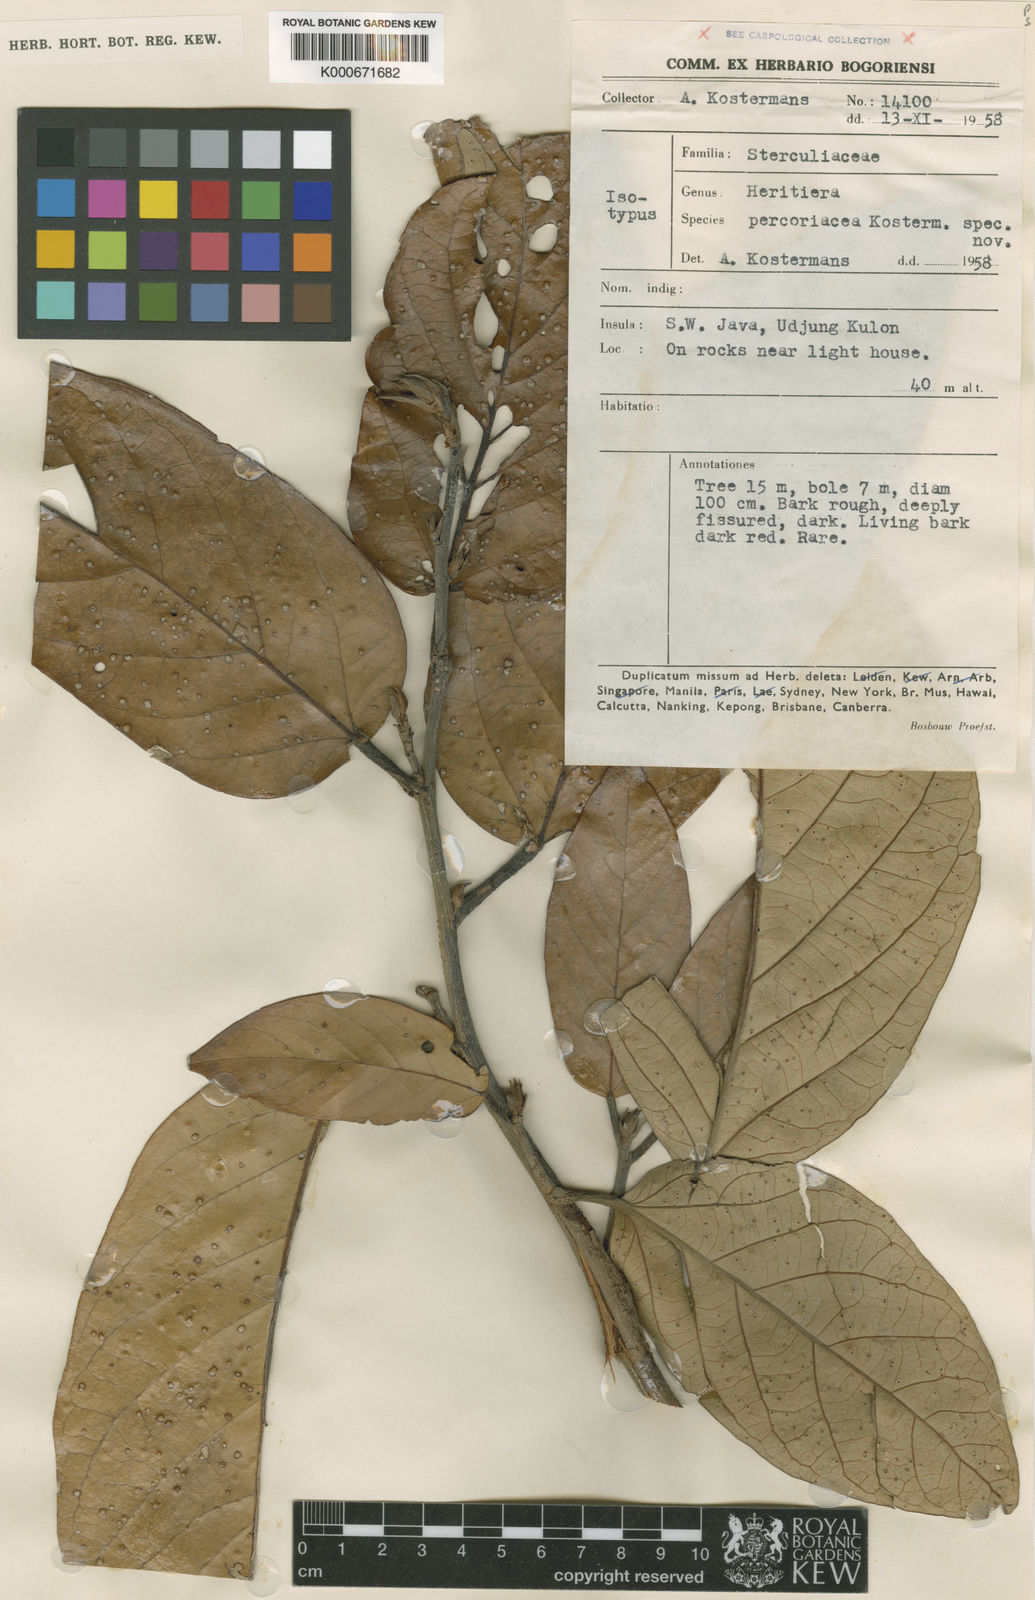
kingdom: Plantae
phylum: Tracheophyta
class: Magnoliopsida
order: Malvales
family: Malvaceae
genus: Heritiera
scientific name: Heritiera percoriacea
